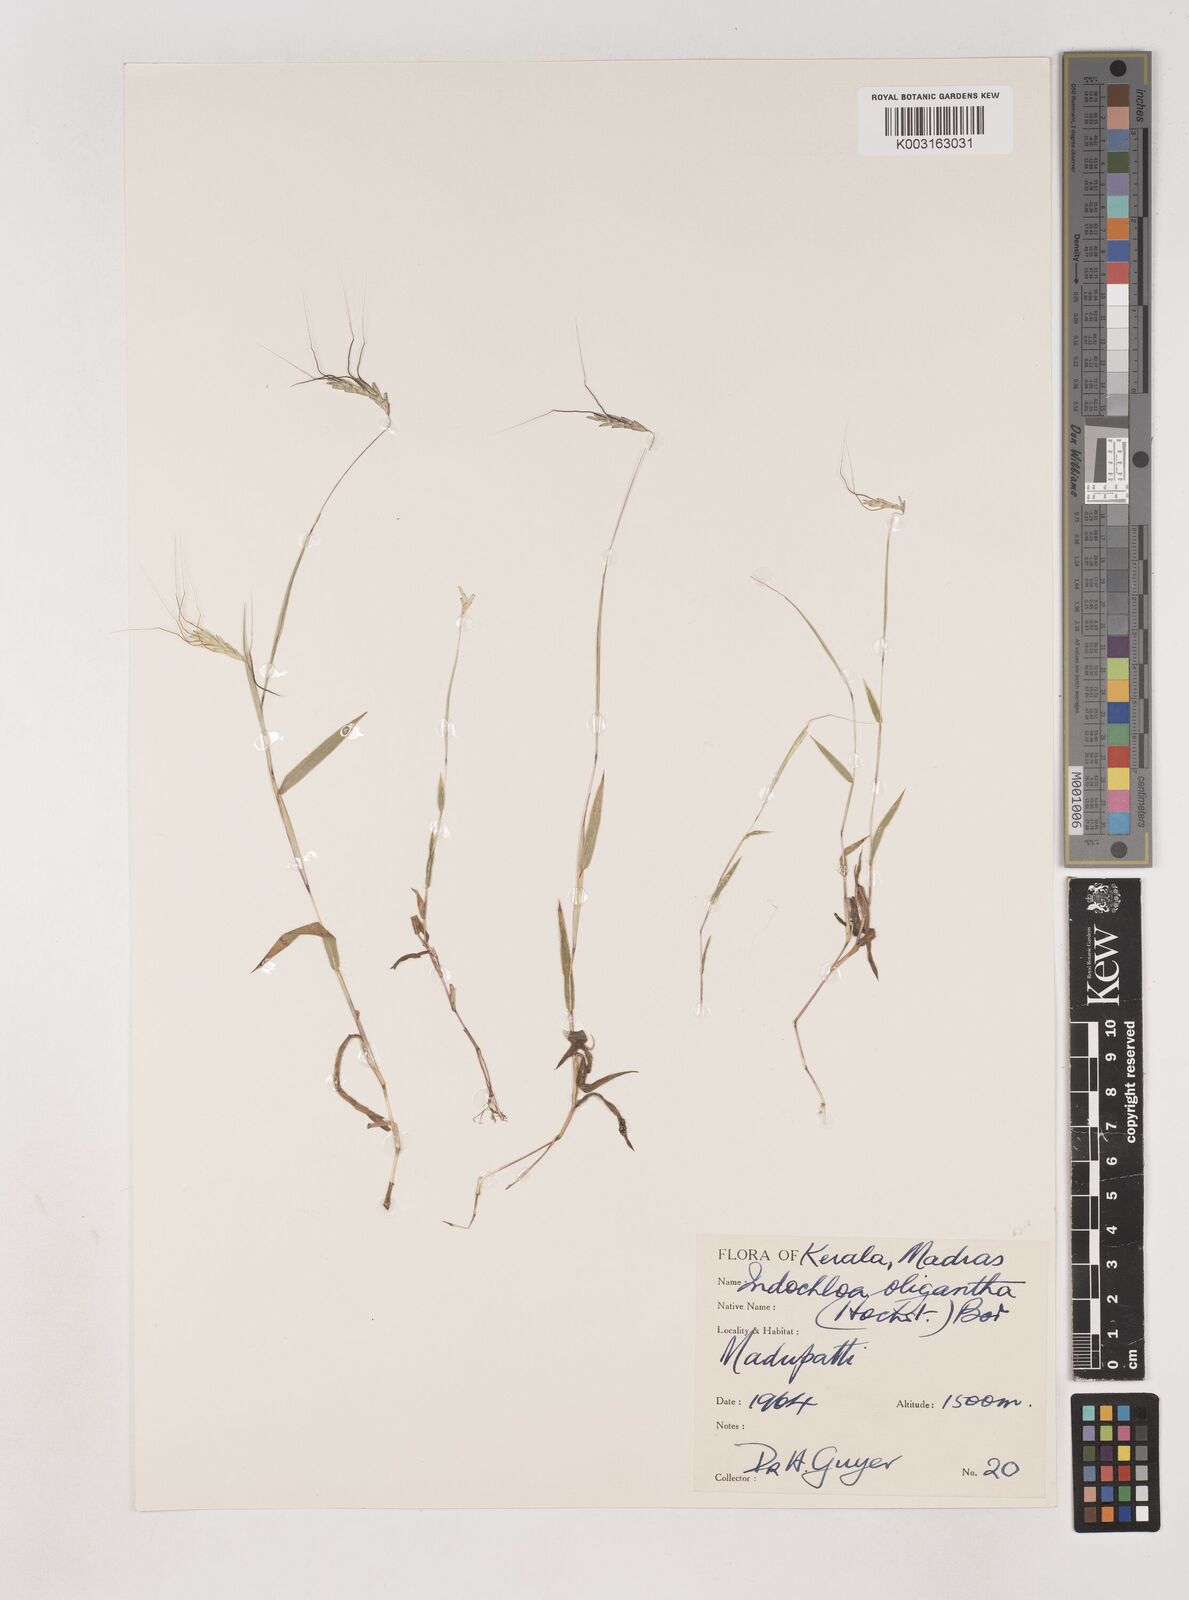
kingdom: Plantae
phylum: Tracheophyta
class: Liliopsida
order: Poales
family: Poaceae
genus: Euclasta
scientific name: Euclasta oligantha
